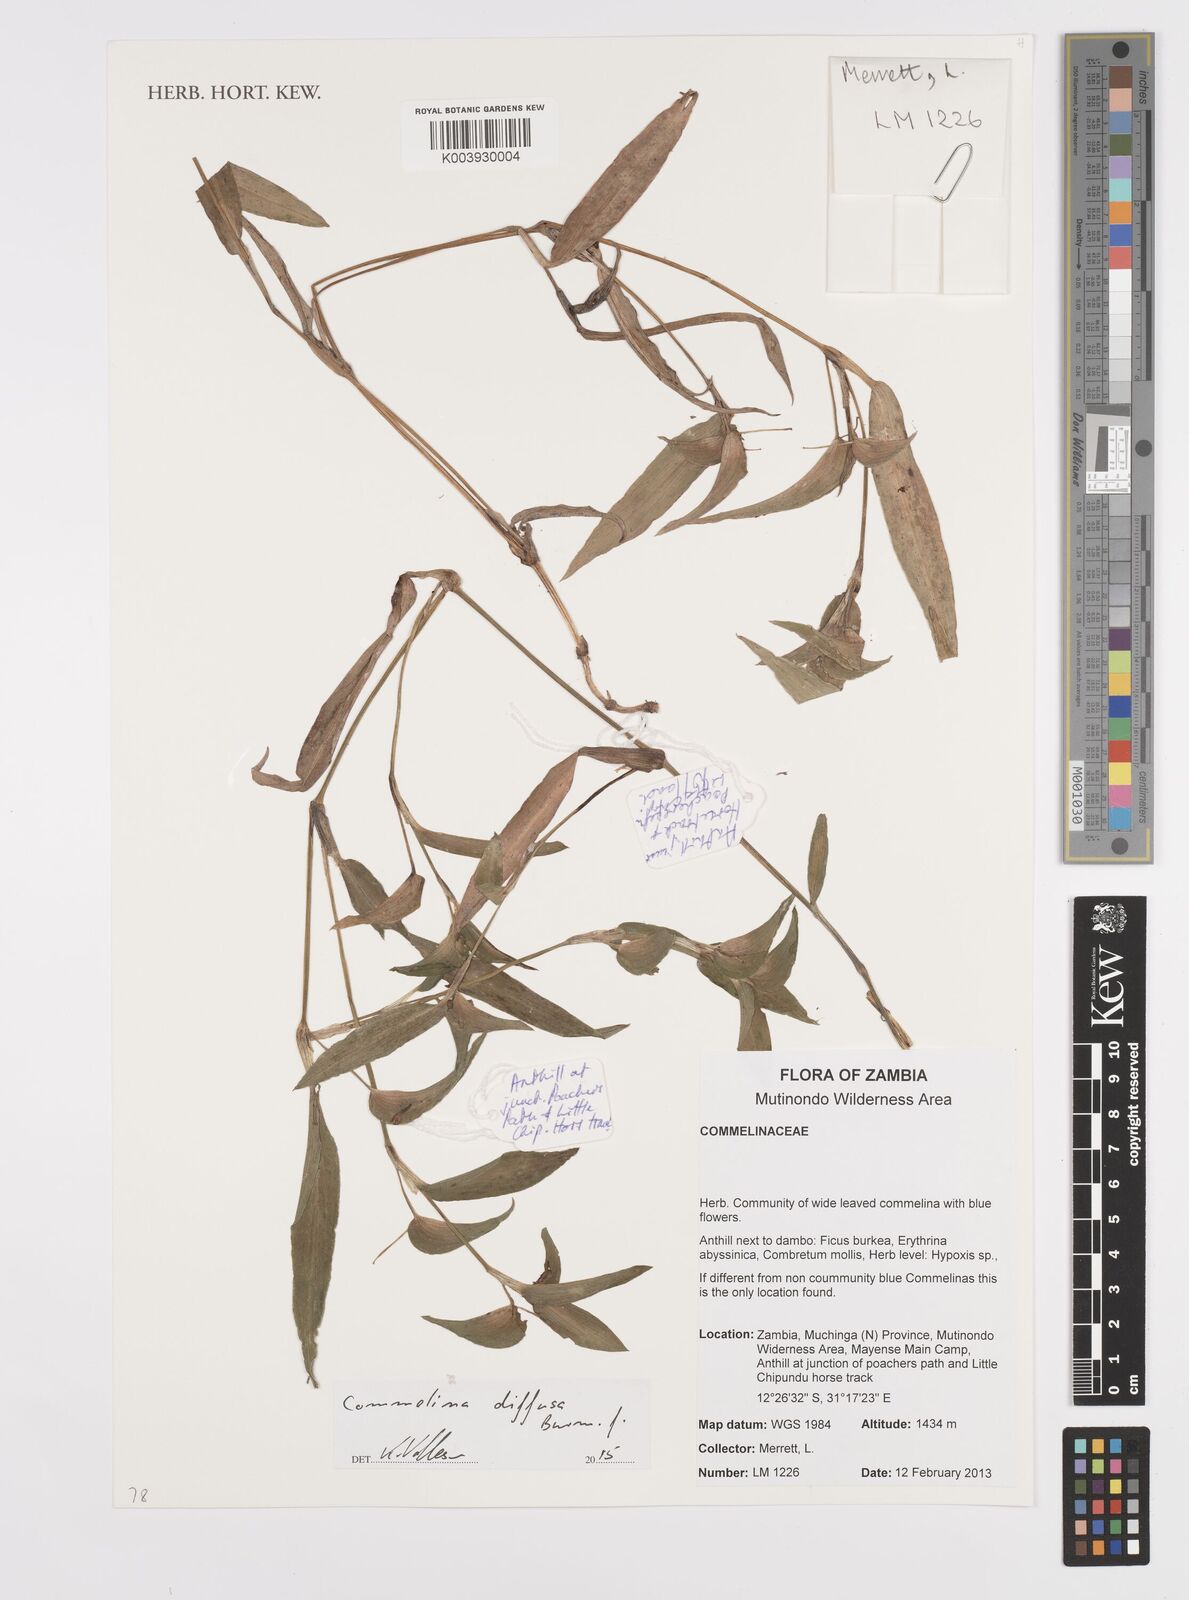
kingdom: Plantae
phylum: Tracheophyta
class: Liliopsida
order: Commelinales
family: Commelinaceae
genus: Commelina
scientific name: Commelina diffusa
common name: Climbing dayflower
